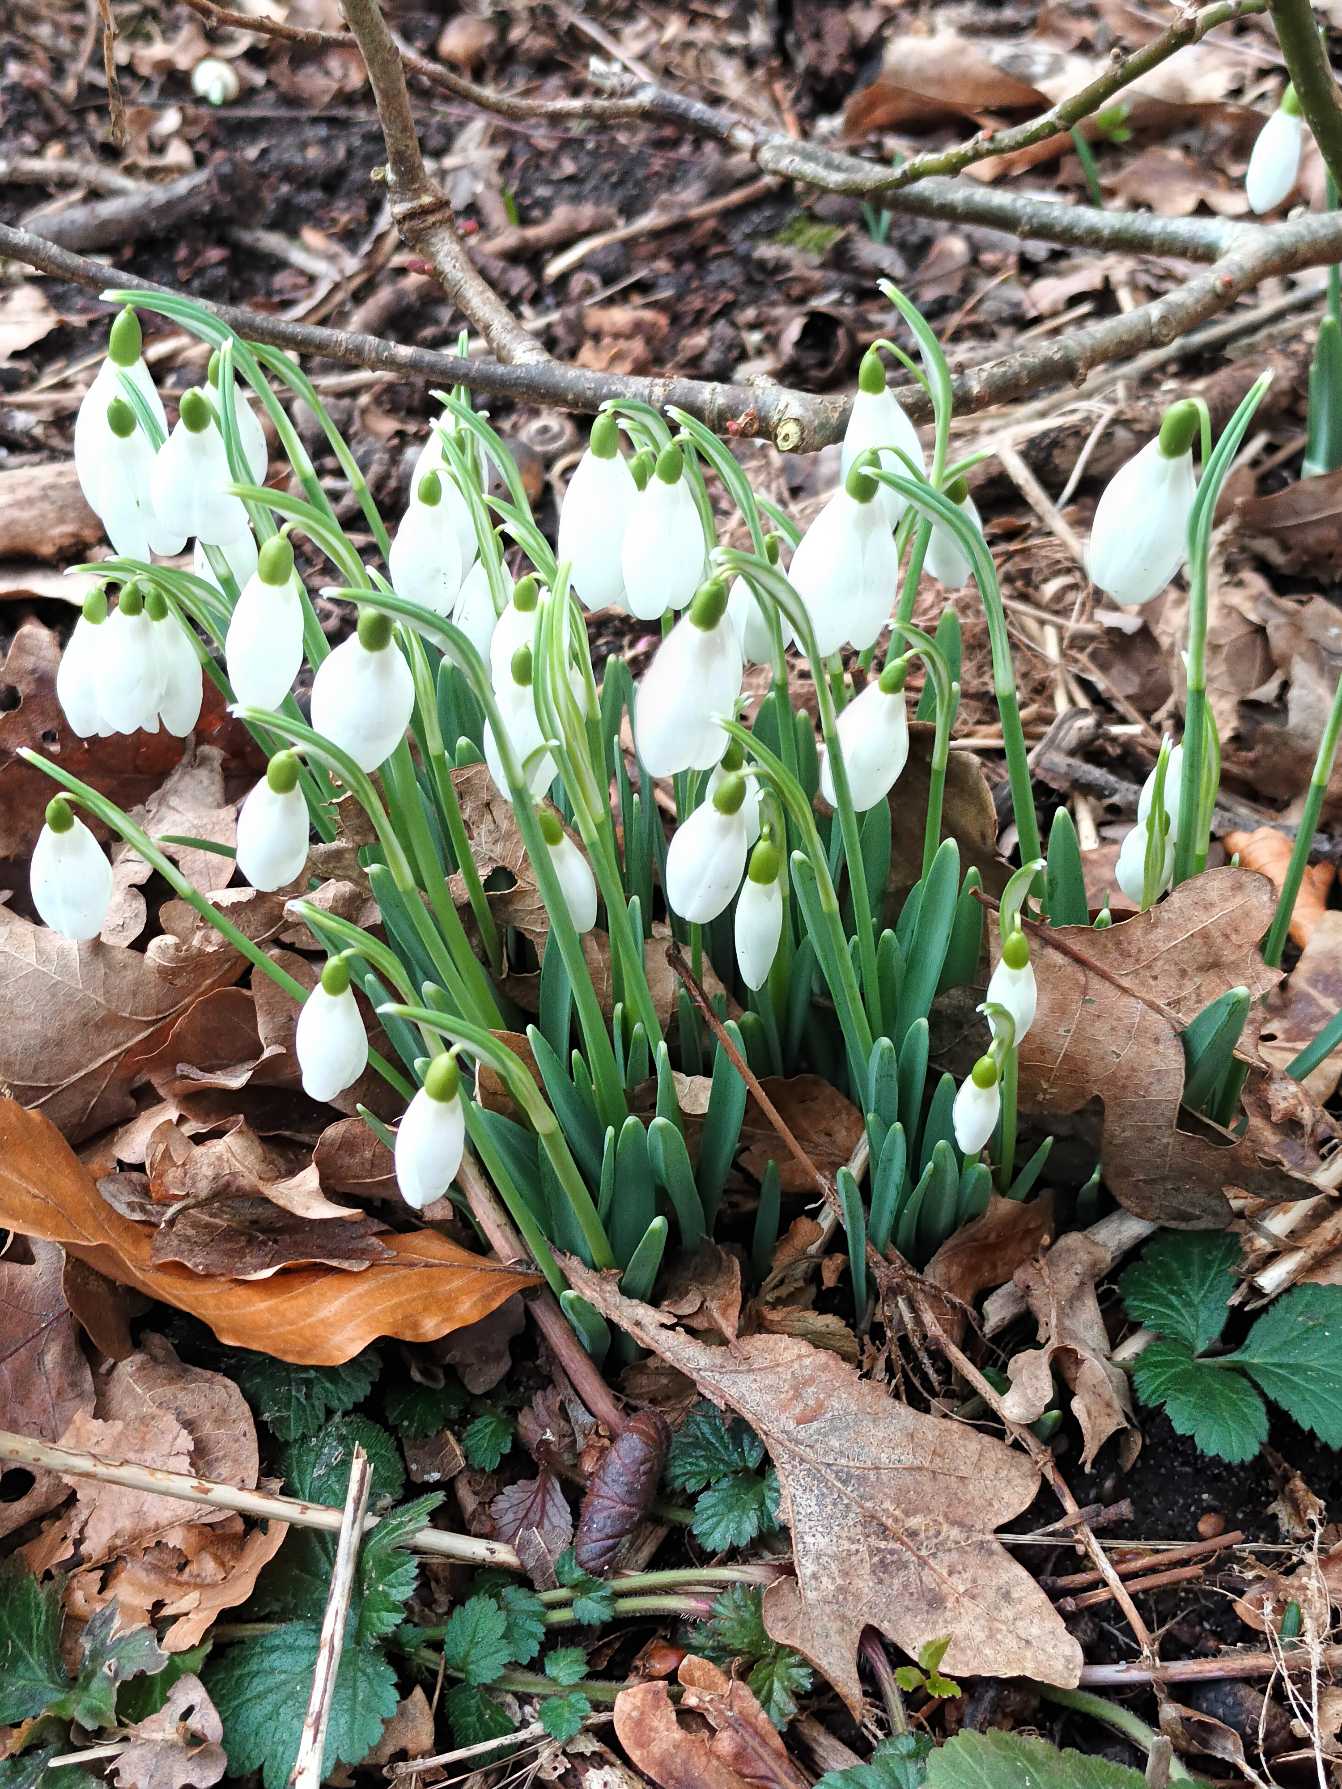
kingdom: Plantae
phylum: Tracheophyta
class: Liliopsida
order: Asparagales
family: Amaryllidaceae
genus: Galanthus
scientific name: Galanthus nivalis
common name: Vintergæk
